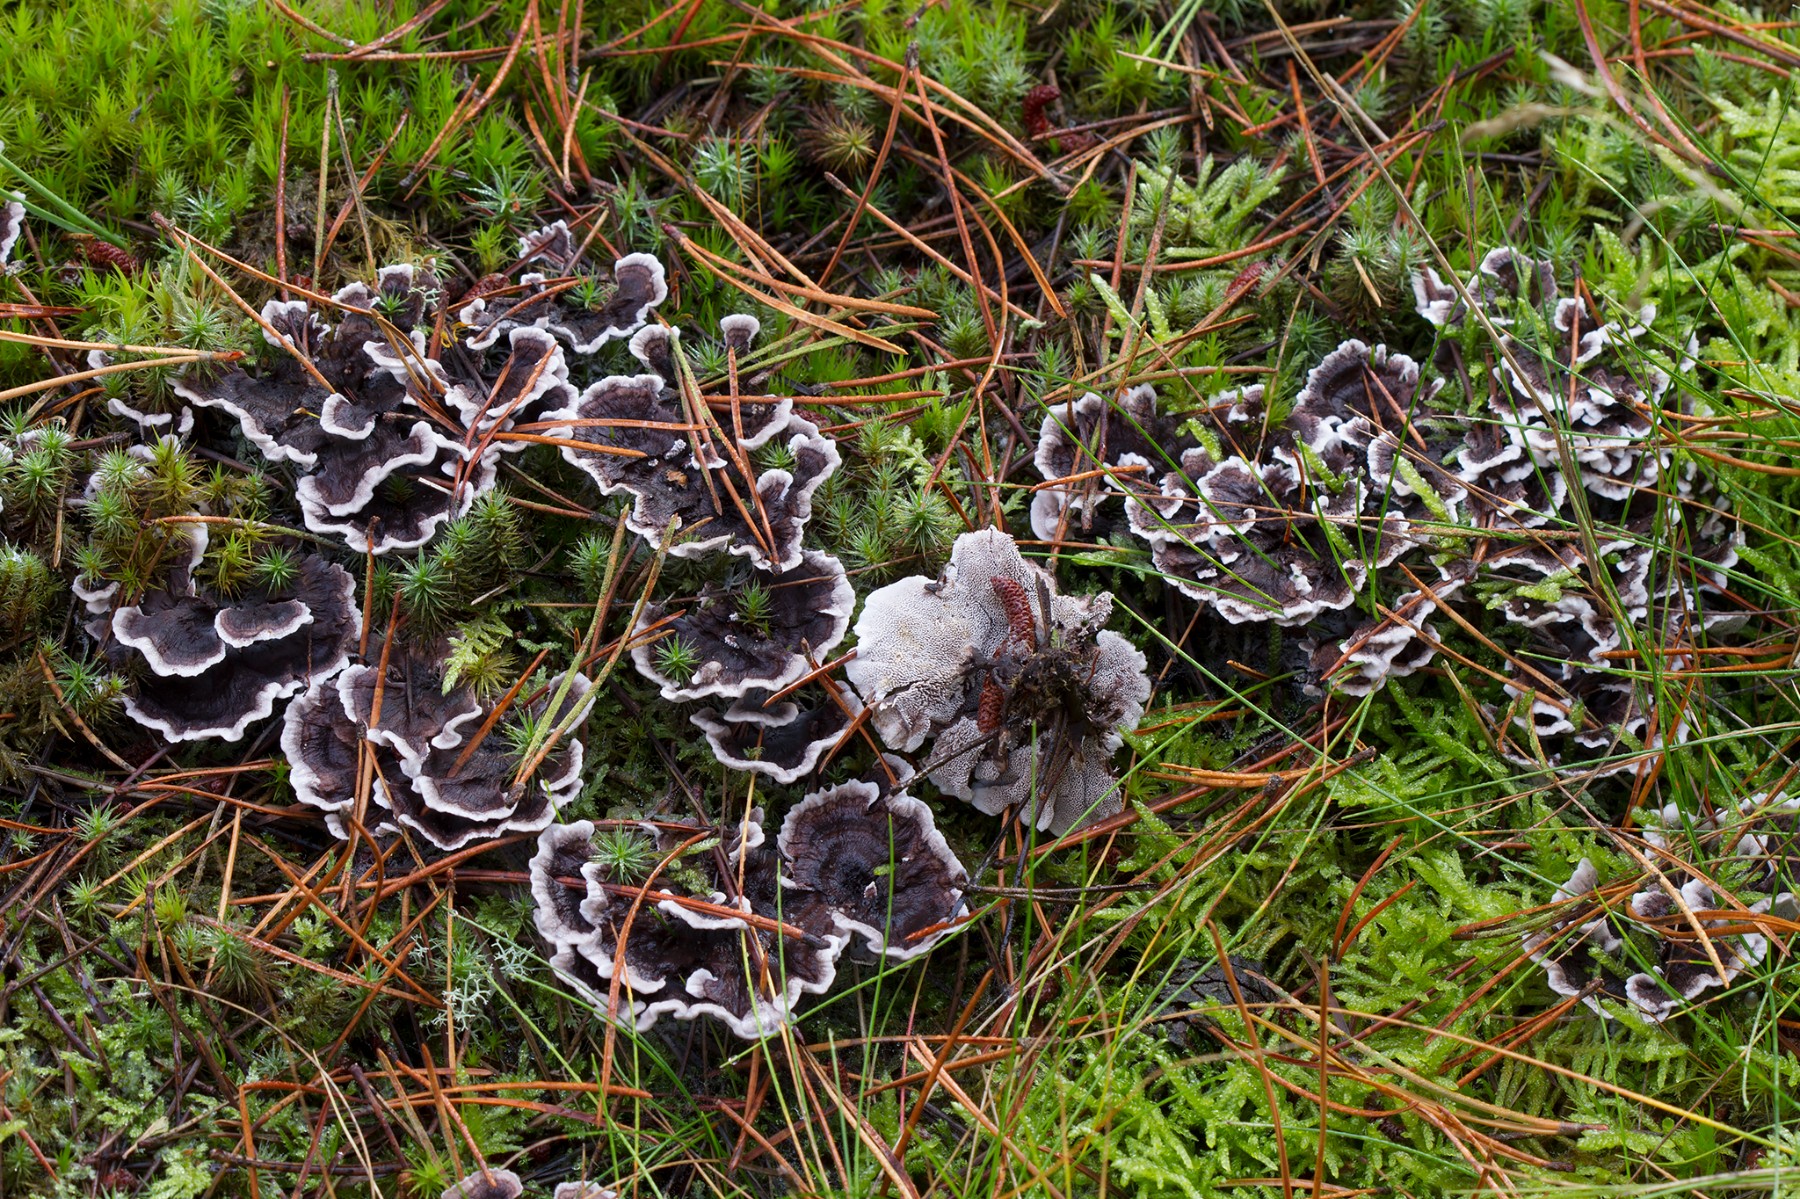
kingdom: Fungi
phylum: Basidiomycota
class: Agaricomycetes
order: Thelephorales
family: Thelephoraceae
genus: Phellodon
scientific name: Phellodon tomentosus
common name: vellugtende duftpigsvamp
